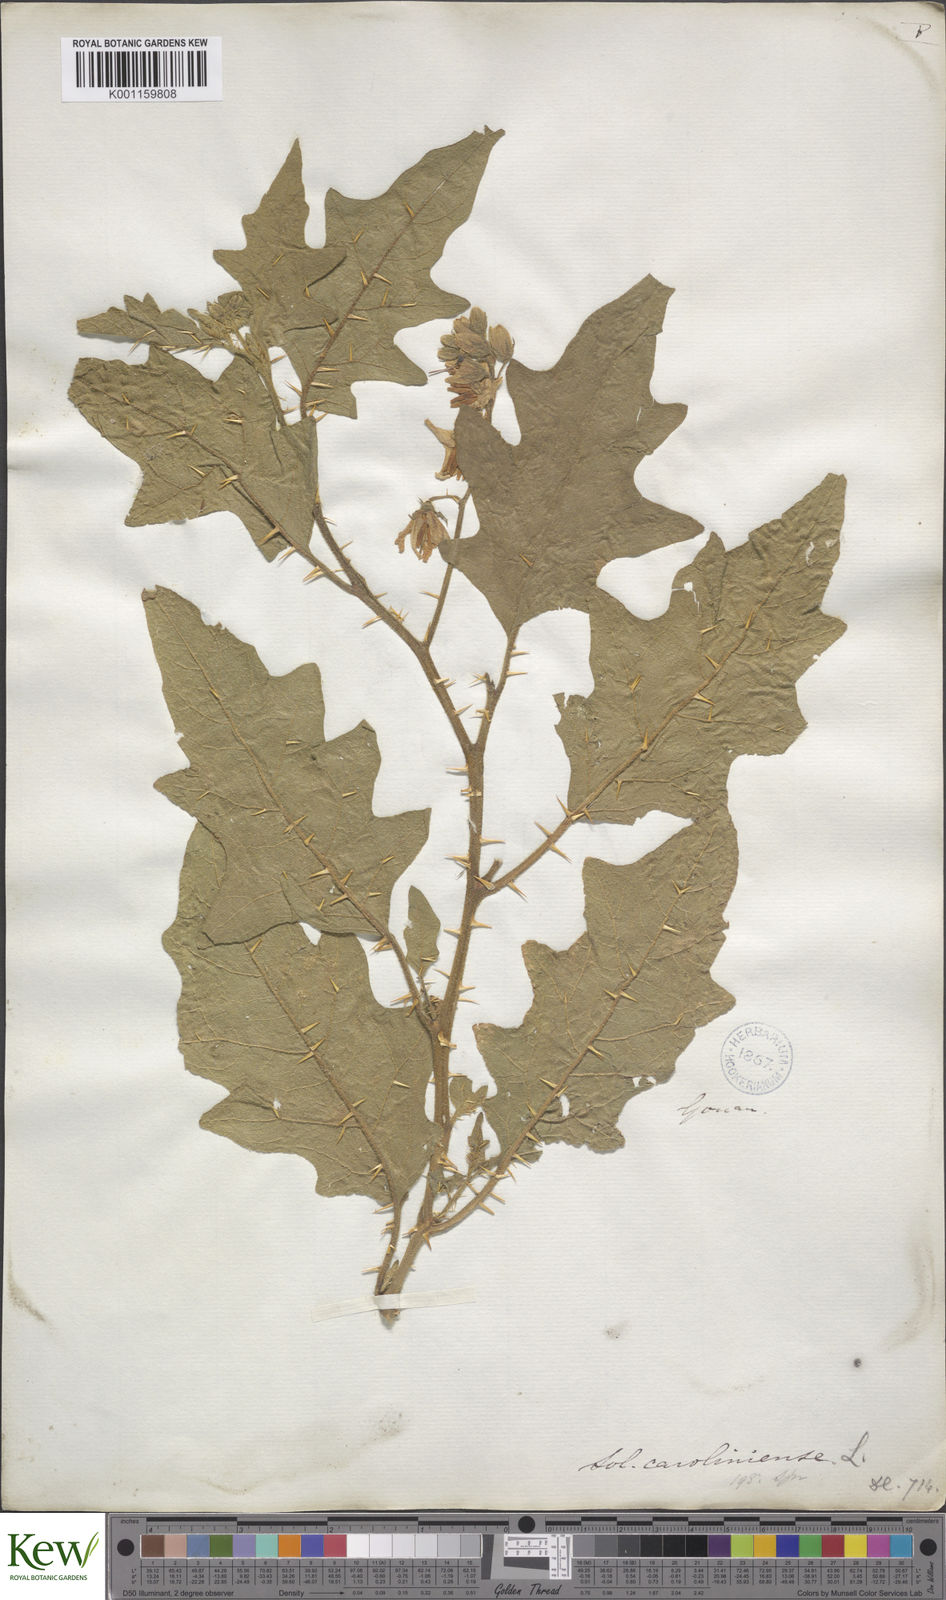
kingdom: Plantae
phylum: Tracheophyta
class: Magnoliopsida
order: Solanales
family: Solanaceae
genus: Solanum
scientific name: Solanum carolinense
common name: Horse-nettle
